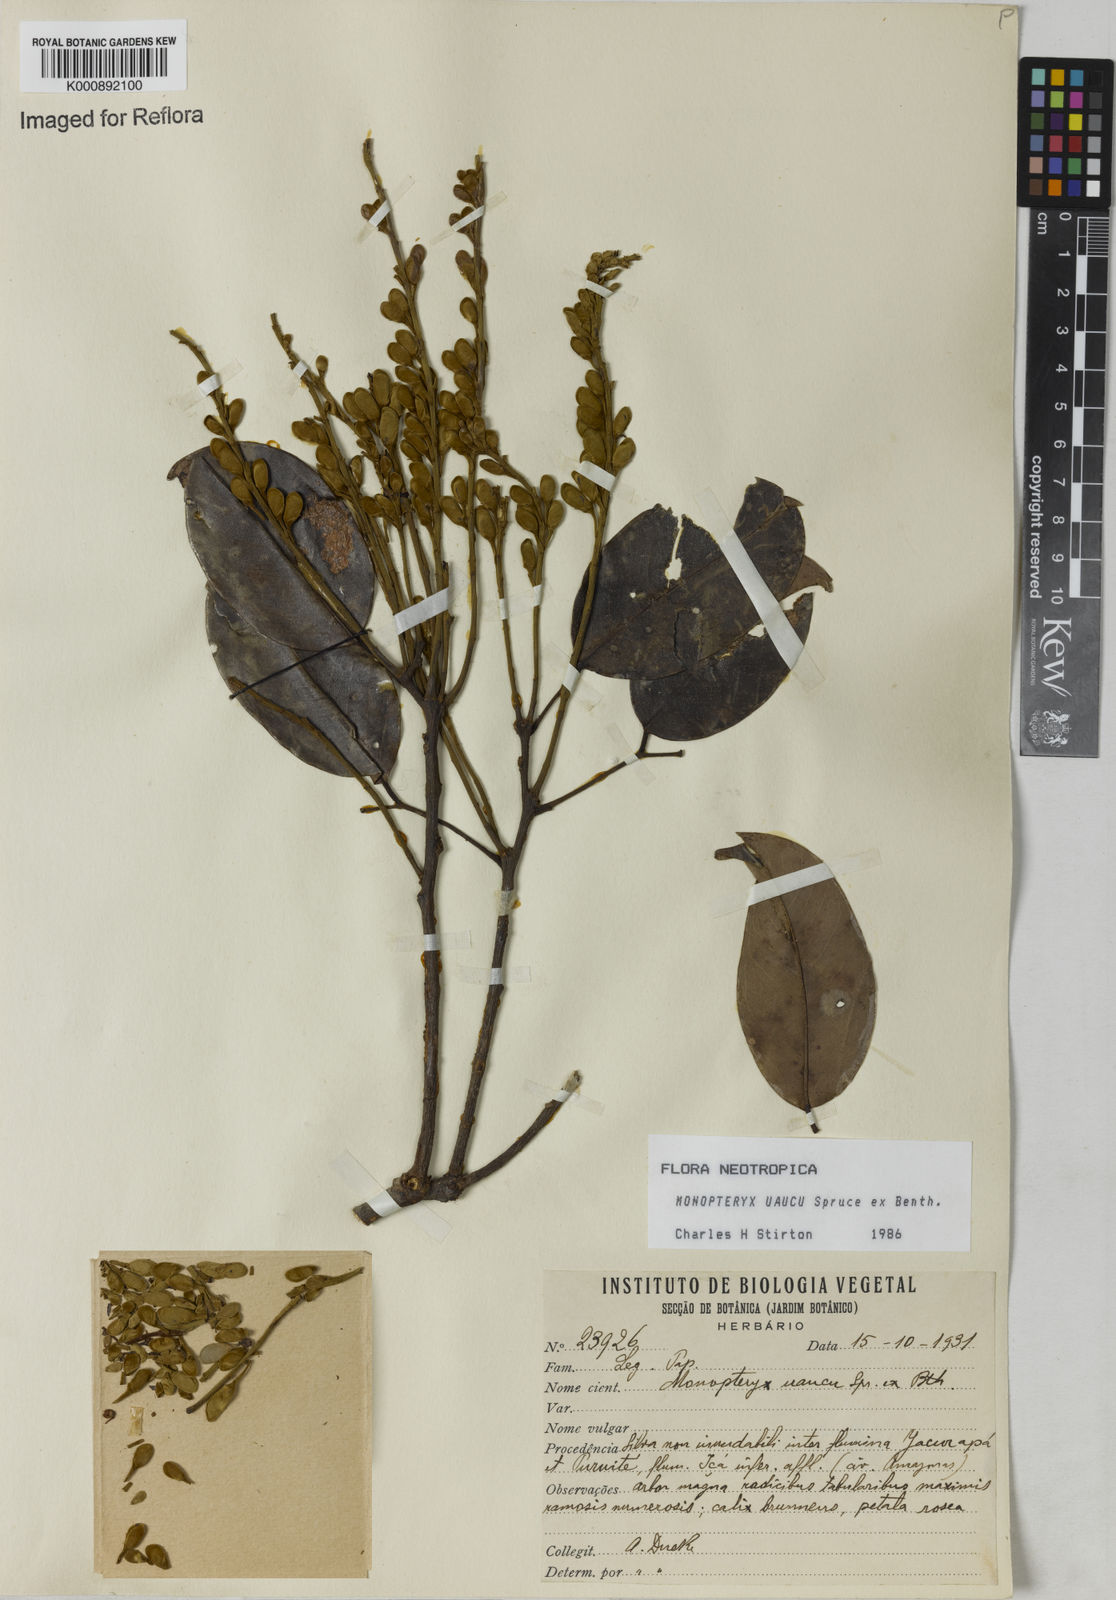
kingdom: Plantae
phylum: Tracheophyta
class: Magnoliopsida
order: Fabales
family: Fabaceae
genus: Monopteryx
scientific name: Monopteryx uaucu
